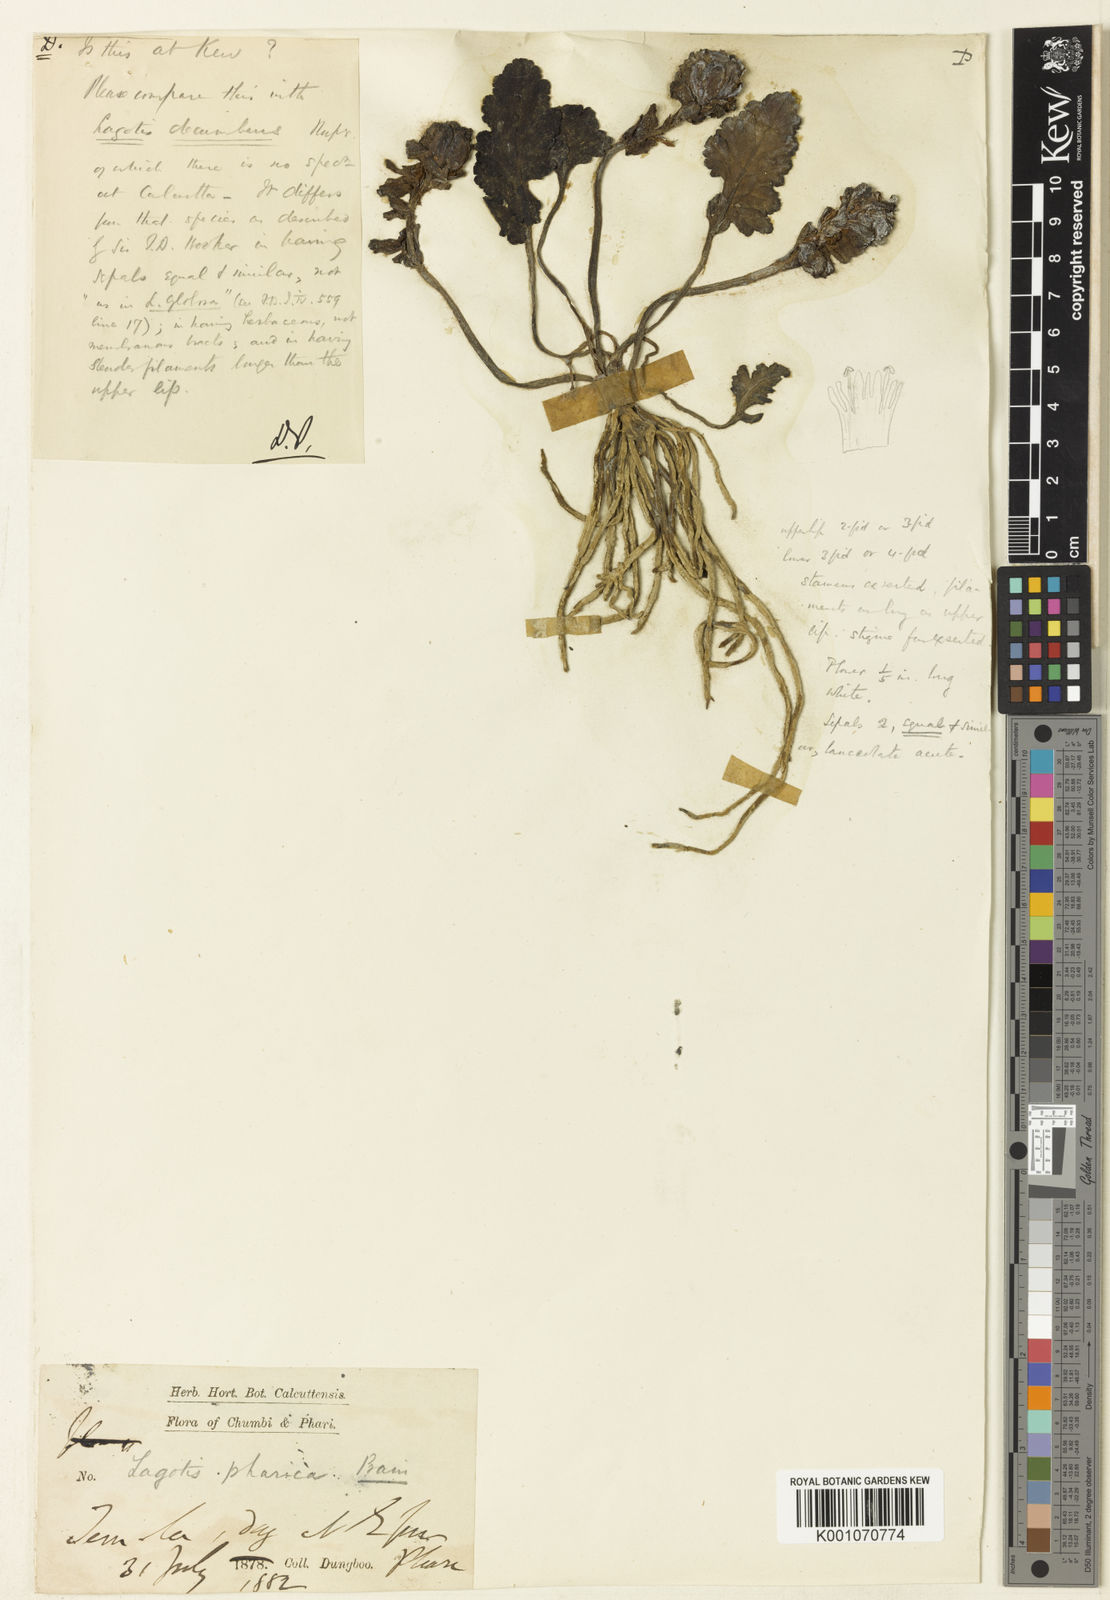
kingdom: Plantae
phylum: Tracheophyta
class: Magnoliopsida
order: Lamiales
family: Plantaginaceae
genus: Lagotis
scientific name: Lagotis pharica
